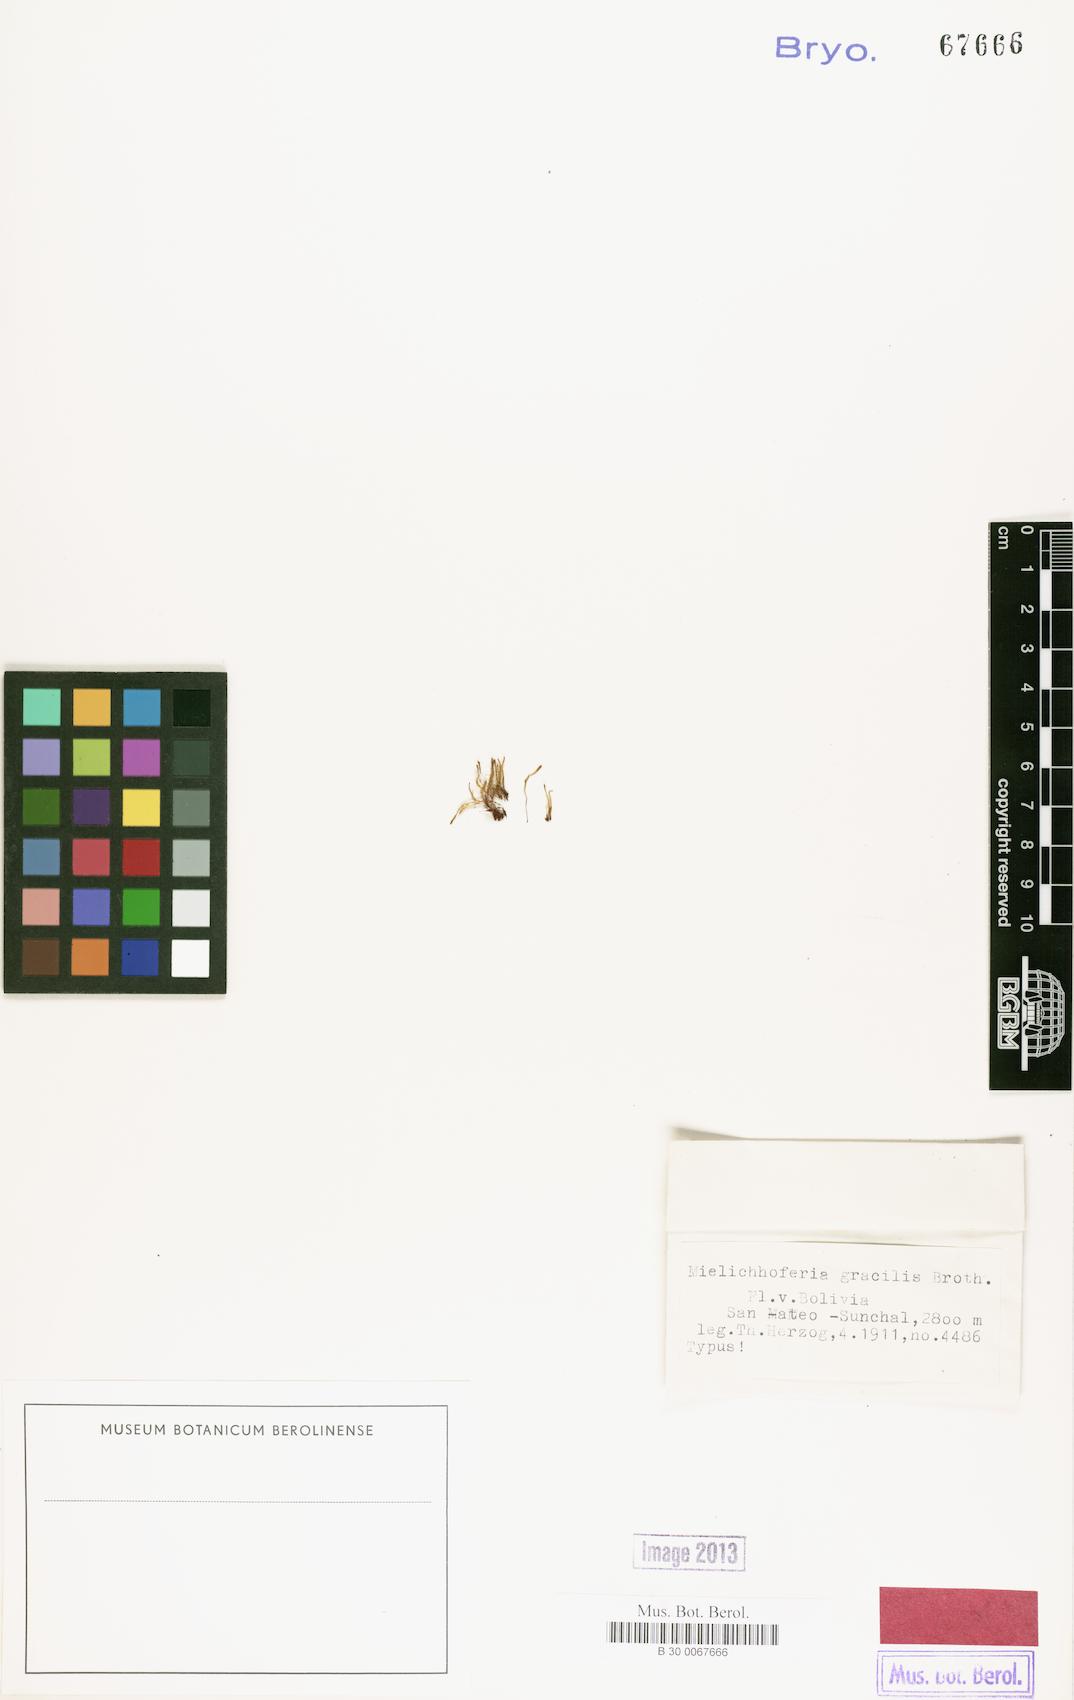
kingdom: Plantae
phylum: Bryophyta
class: Bryopsida
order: Bryales
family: Mniaceae
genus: Schizymenium
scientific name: Schizymenium bolivianum
